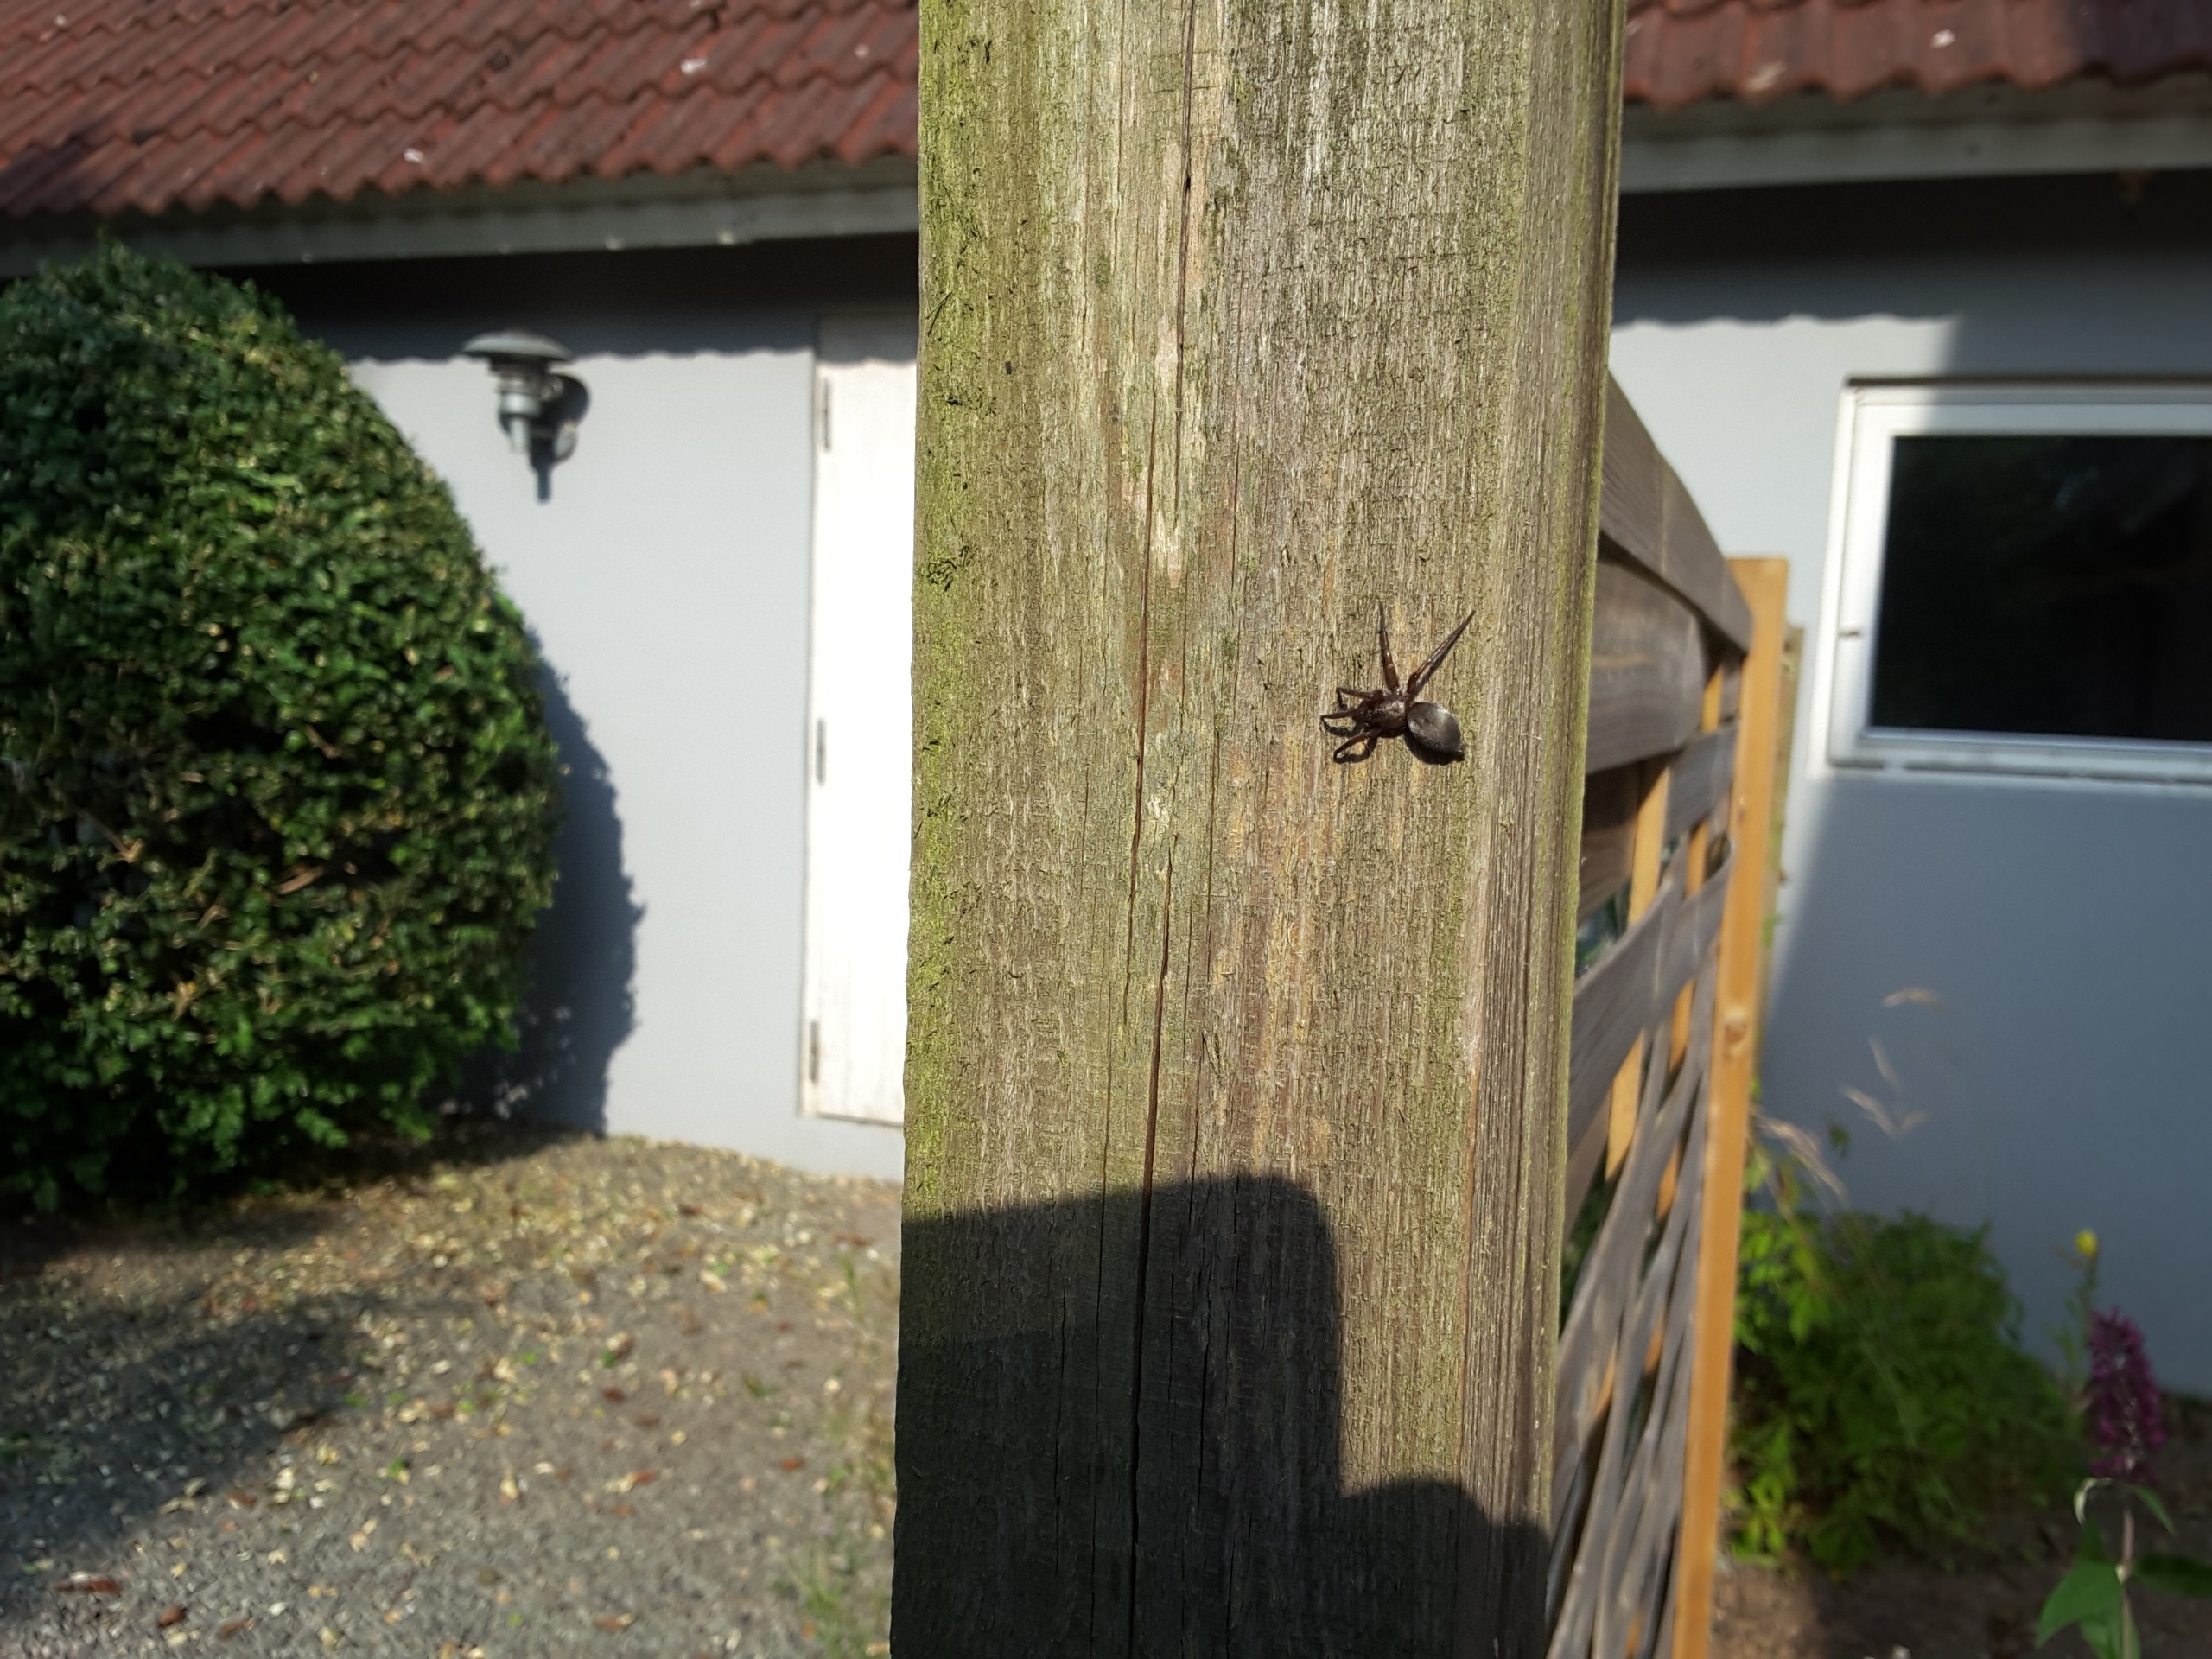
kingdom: Animalia
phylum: Arthropoda
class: Arachnida
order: Araneae
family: Gnaphosidae
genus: Scotophaeus
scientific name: Scotophaeus
